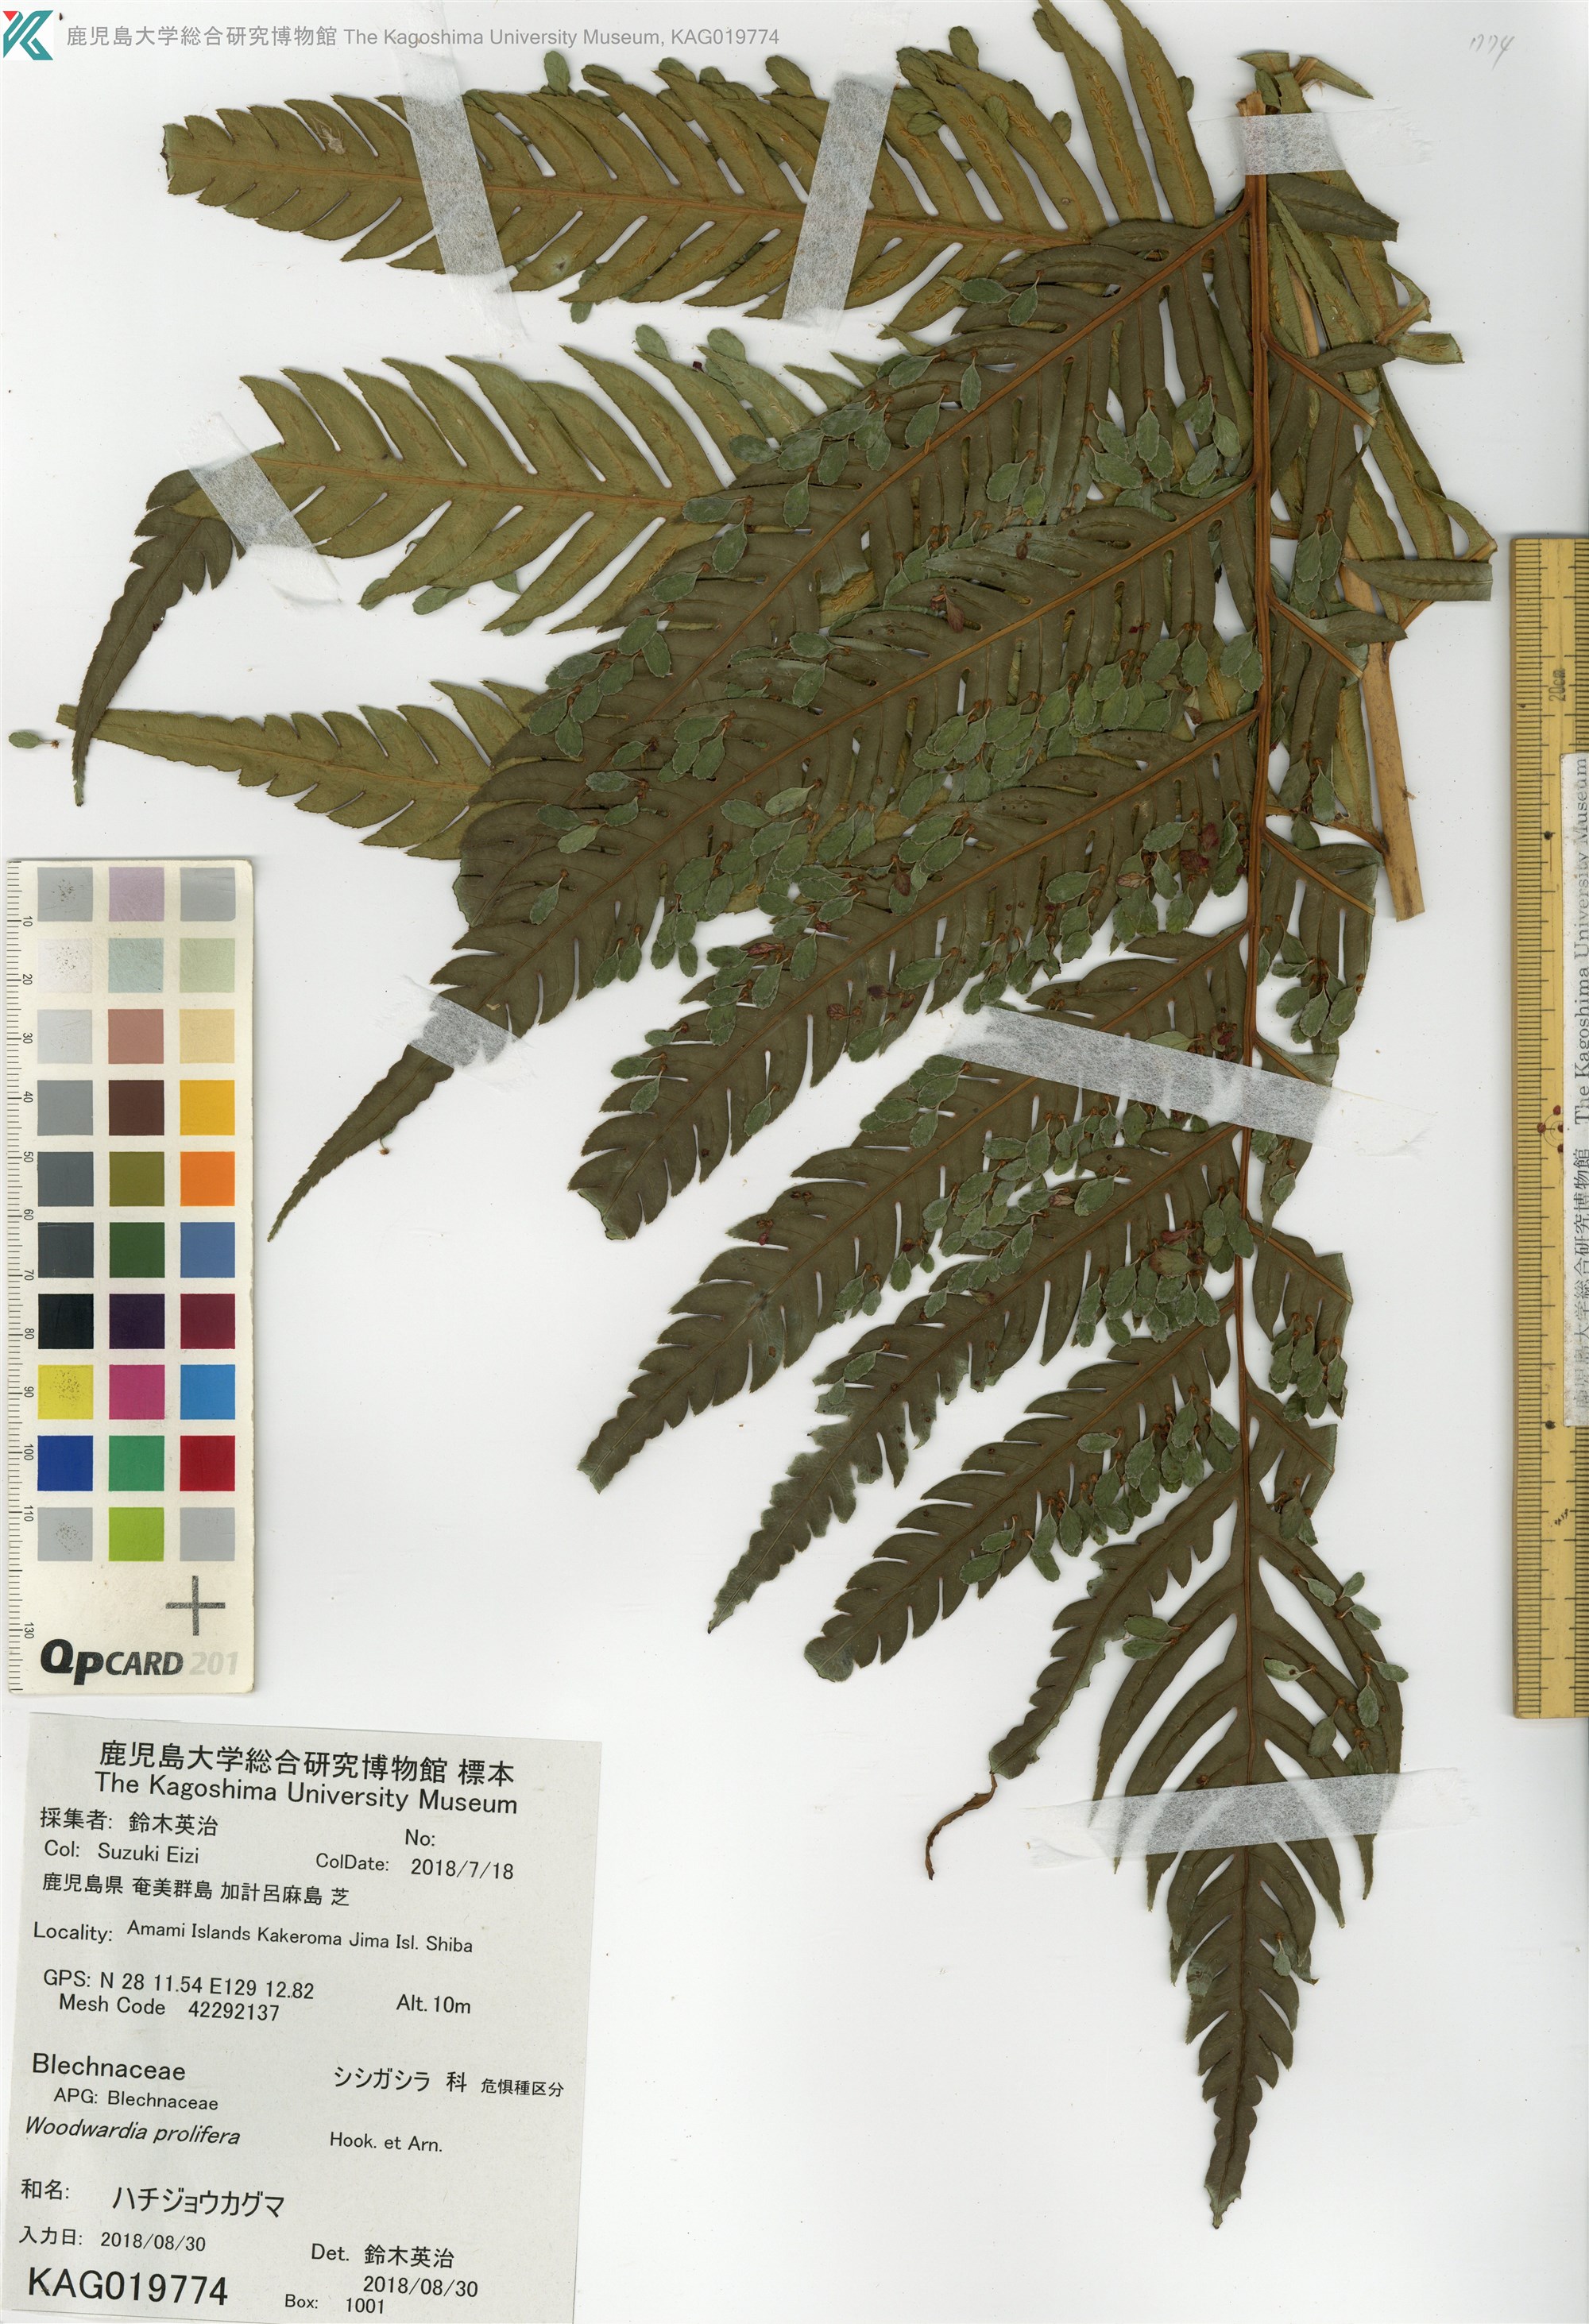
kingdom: Plantae
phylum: Tracheophyta
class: Polypodiopsida
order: Polypodiales
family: Blechnaceae
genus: Woodwardia
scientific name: Woodwardia prolifera
